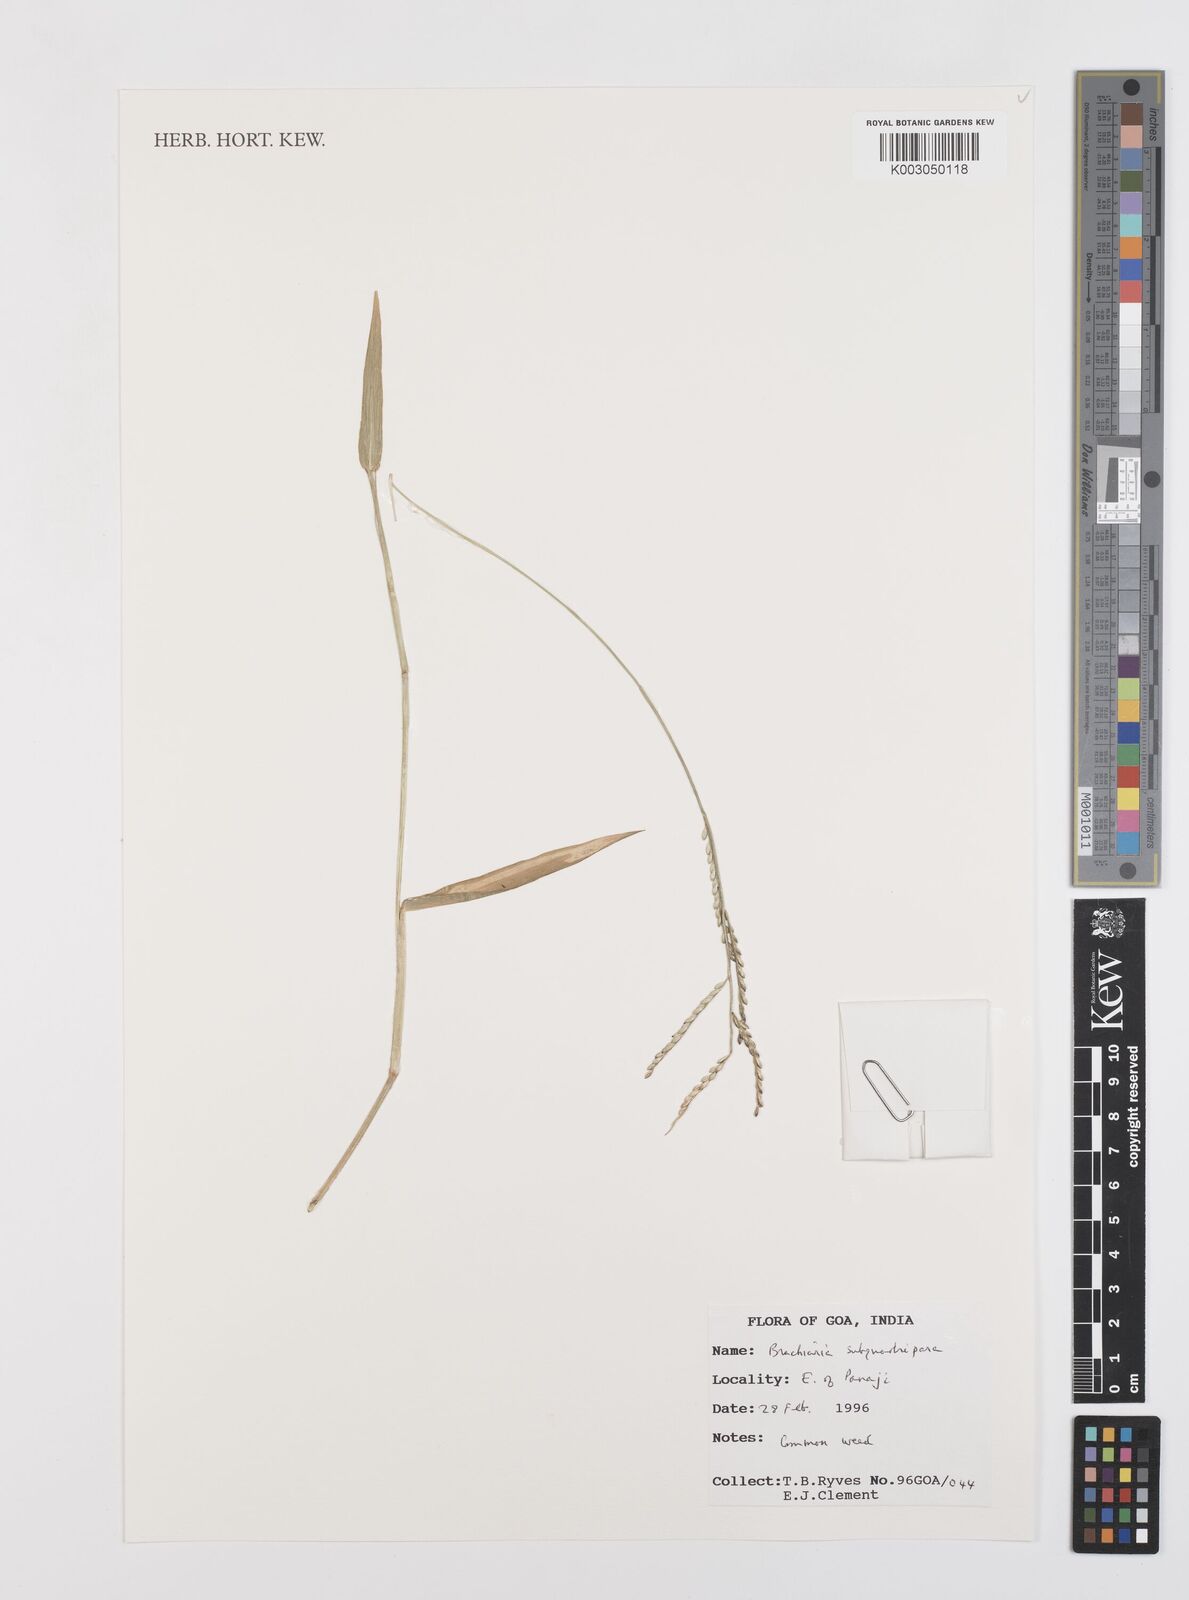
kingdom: Plantae
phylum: Tracheophyta
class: Liliopsida
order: Poales
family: Poaceae
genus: Urochloa
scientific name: Urochloa subquadripara
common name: Armgrass millet
